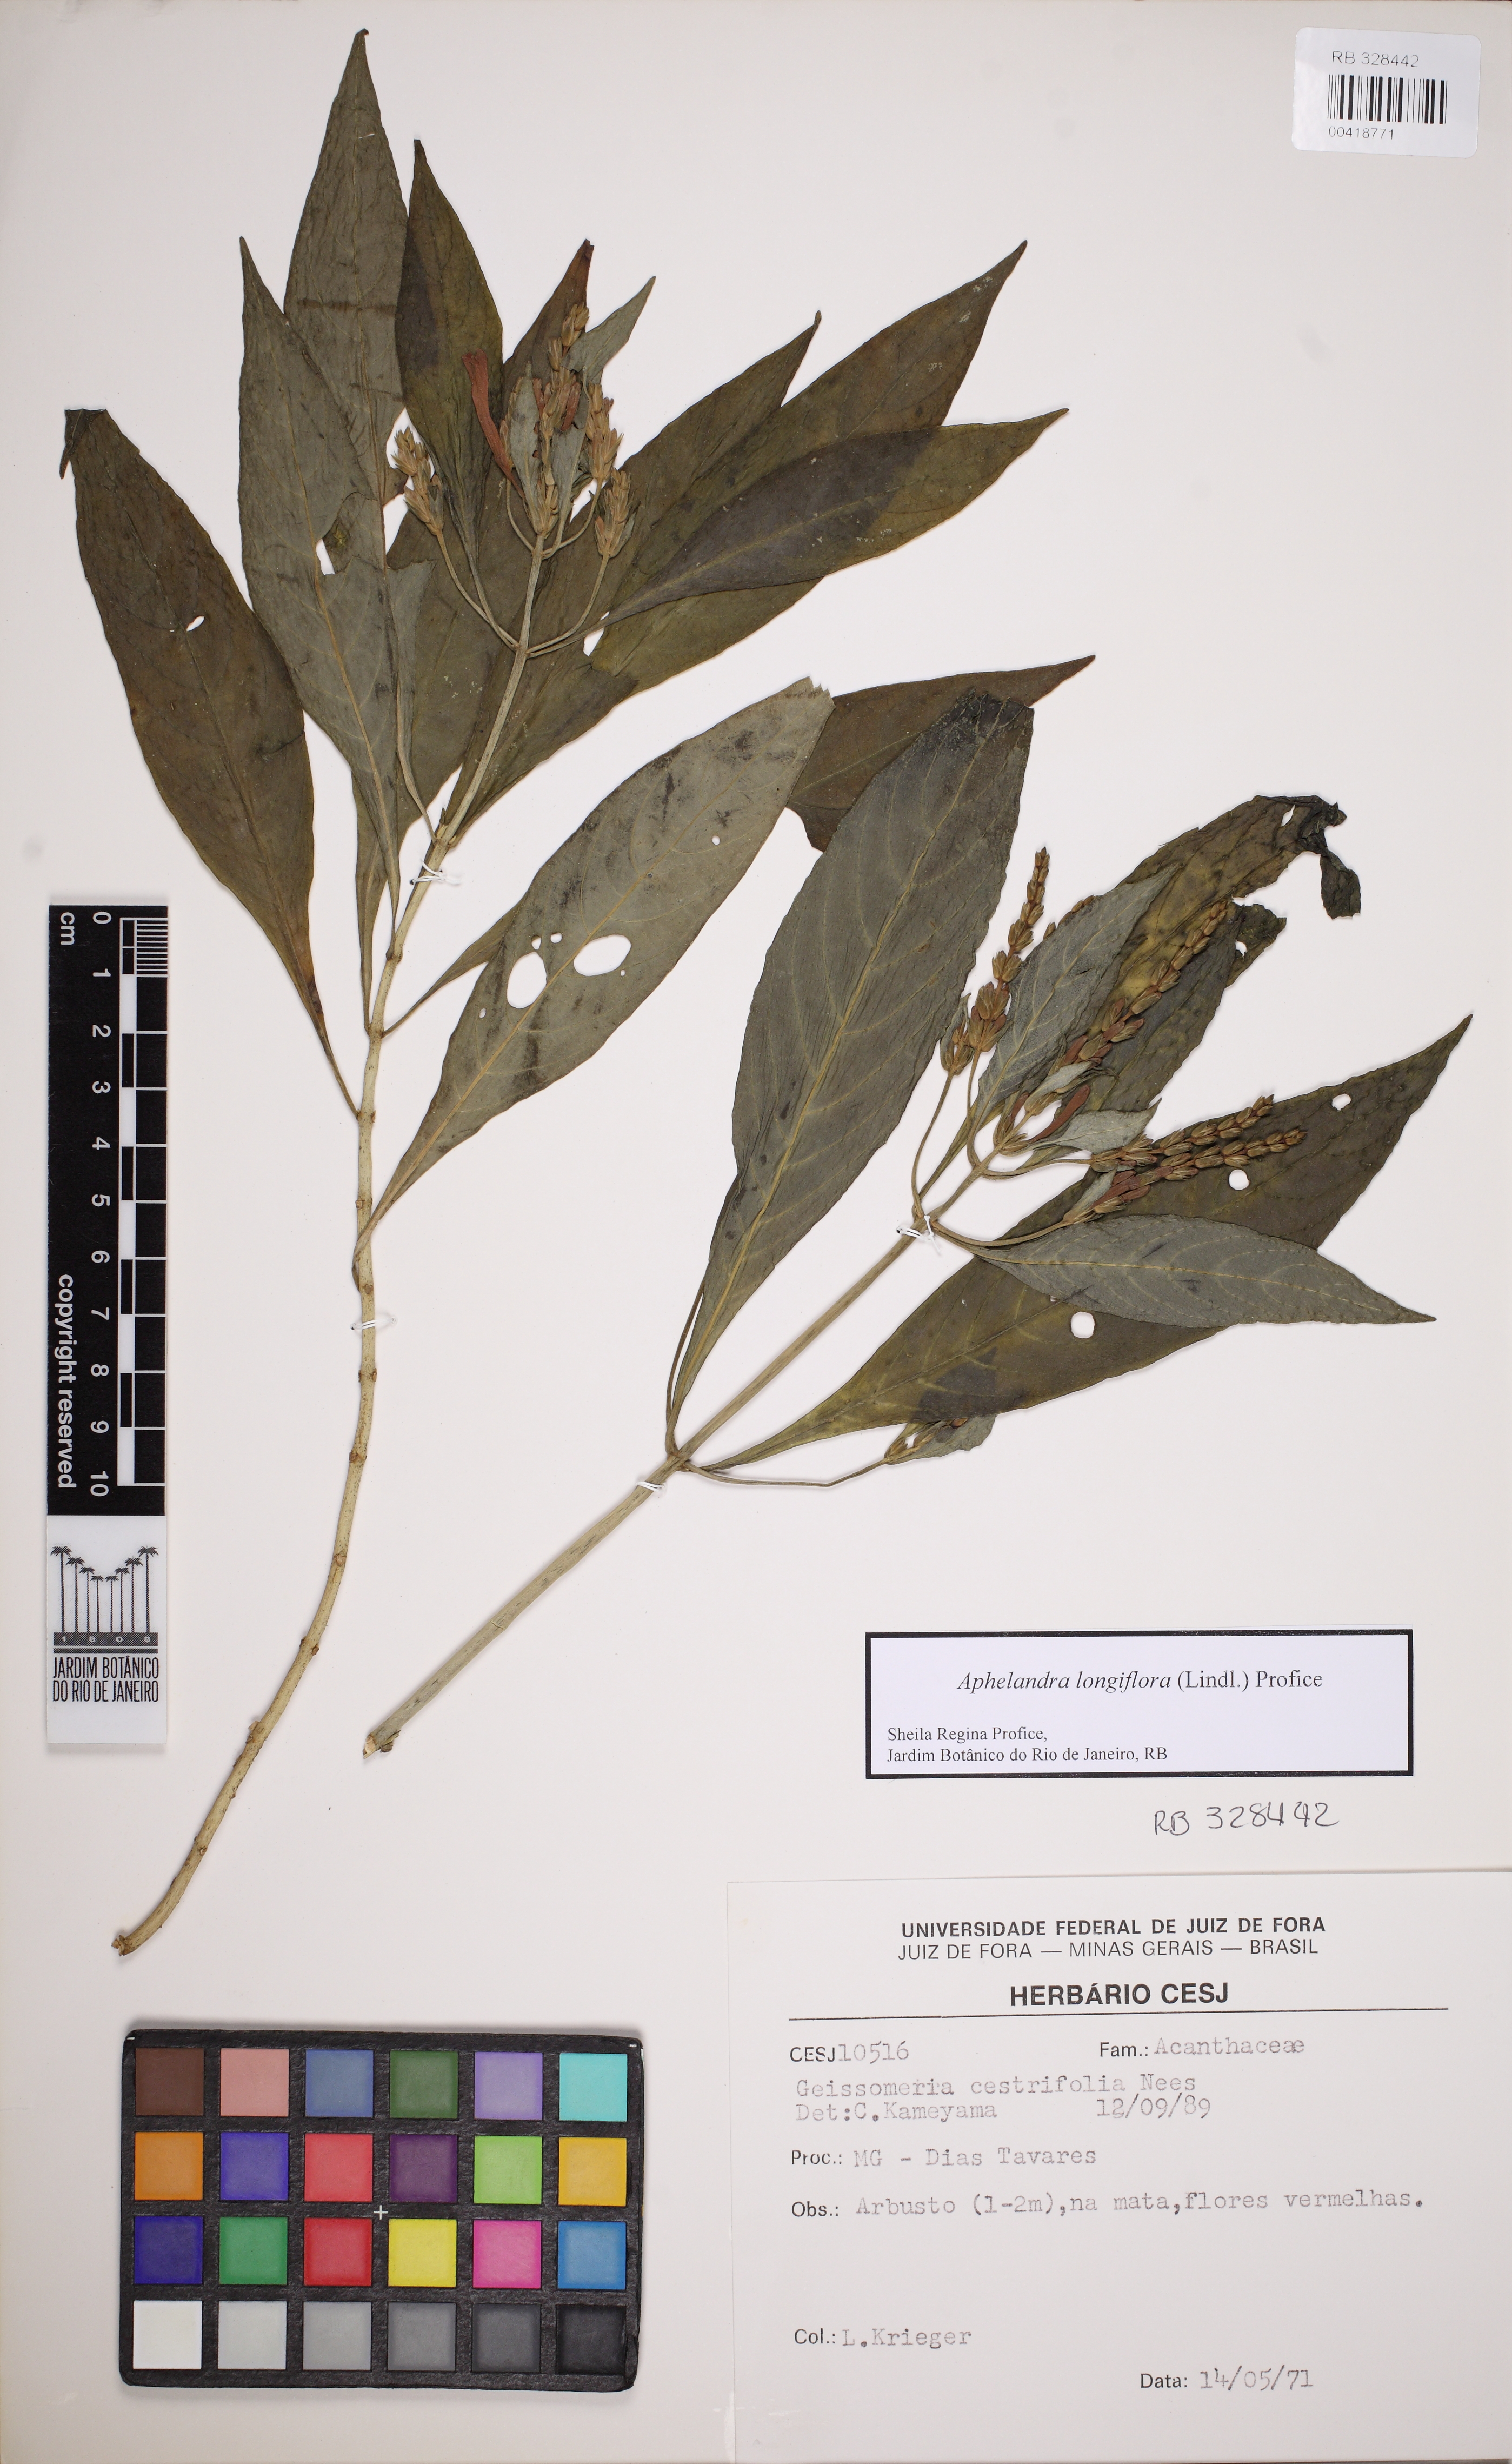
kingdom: Plantae
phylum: Tracheophyta
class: Magnoliopsida
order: Lamiales
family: Acanthaceae
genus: Aphelandra
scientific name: Aphelandra longiflora
